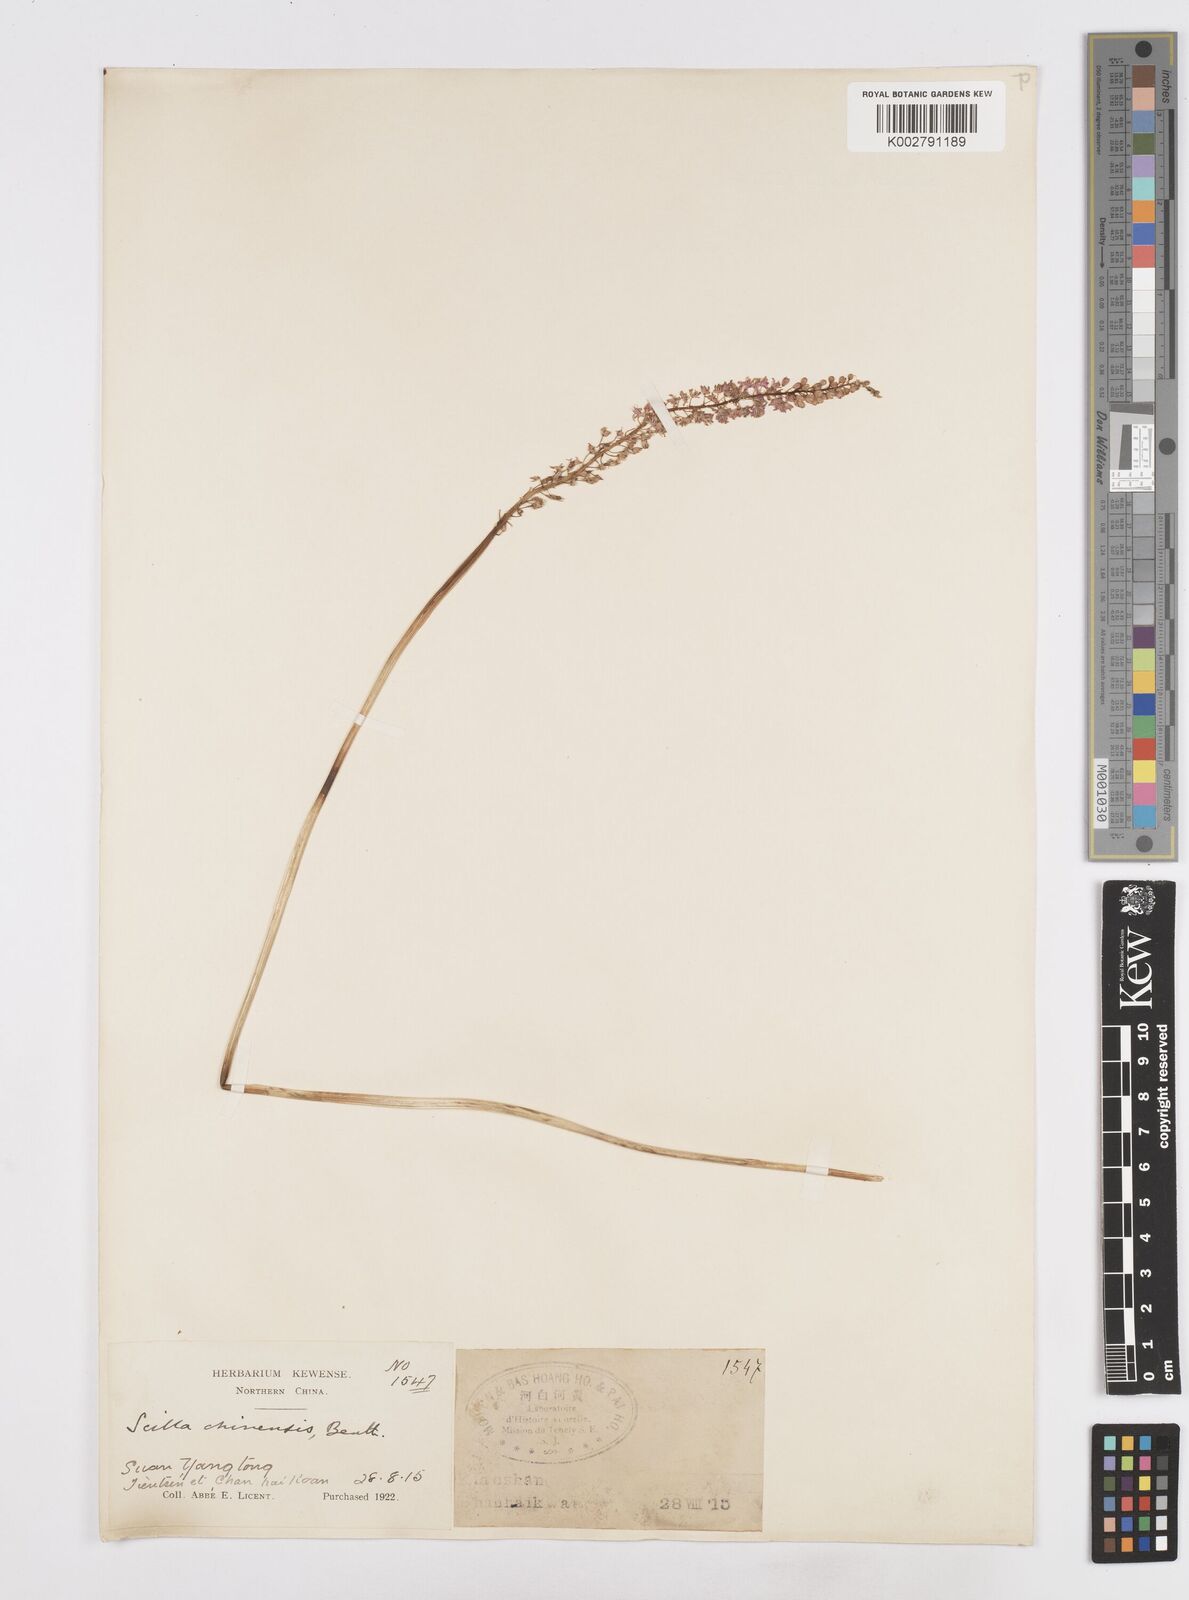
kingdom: Plantae
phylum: Tracheophyta
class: Liliopsida
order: Asparagales
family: Asparagaceae
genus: Barnardia
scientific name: Barnardia japonica
